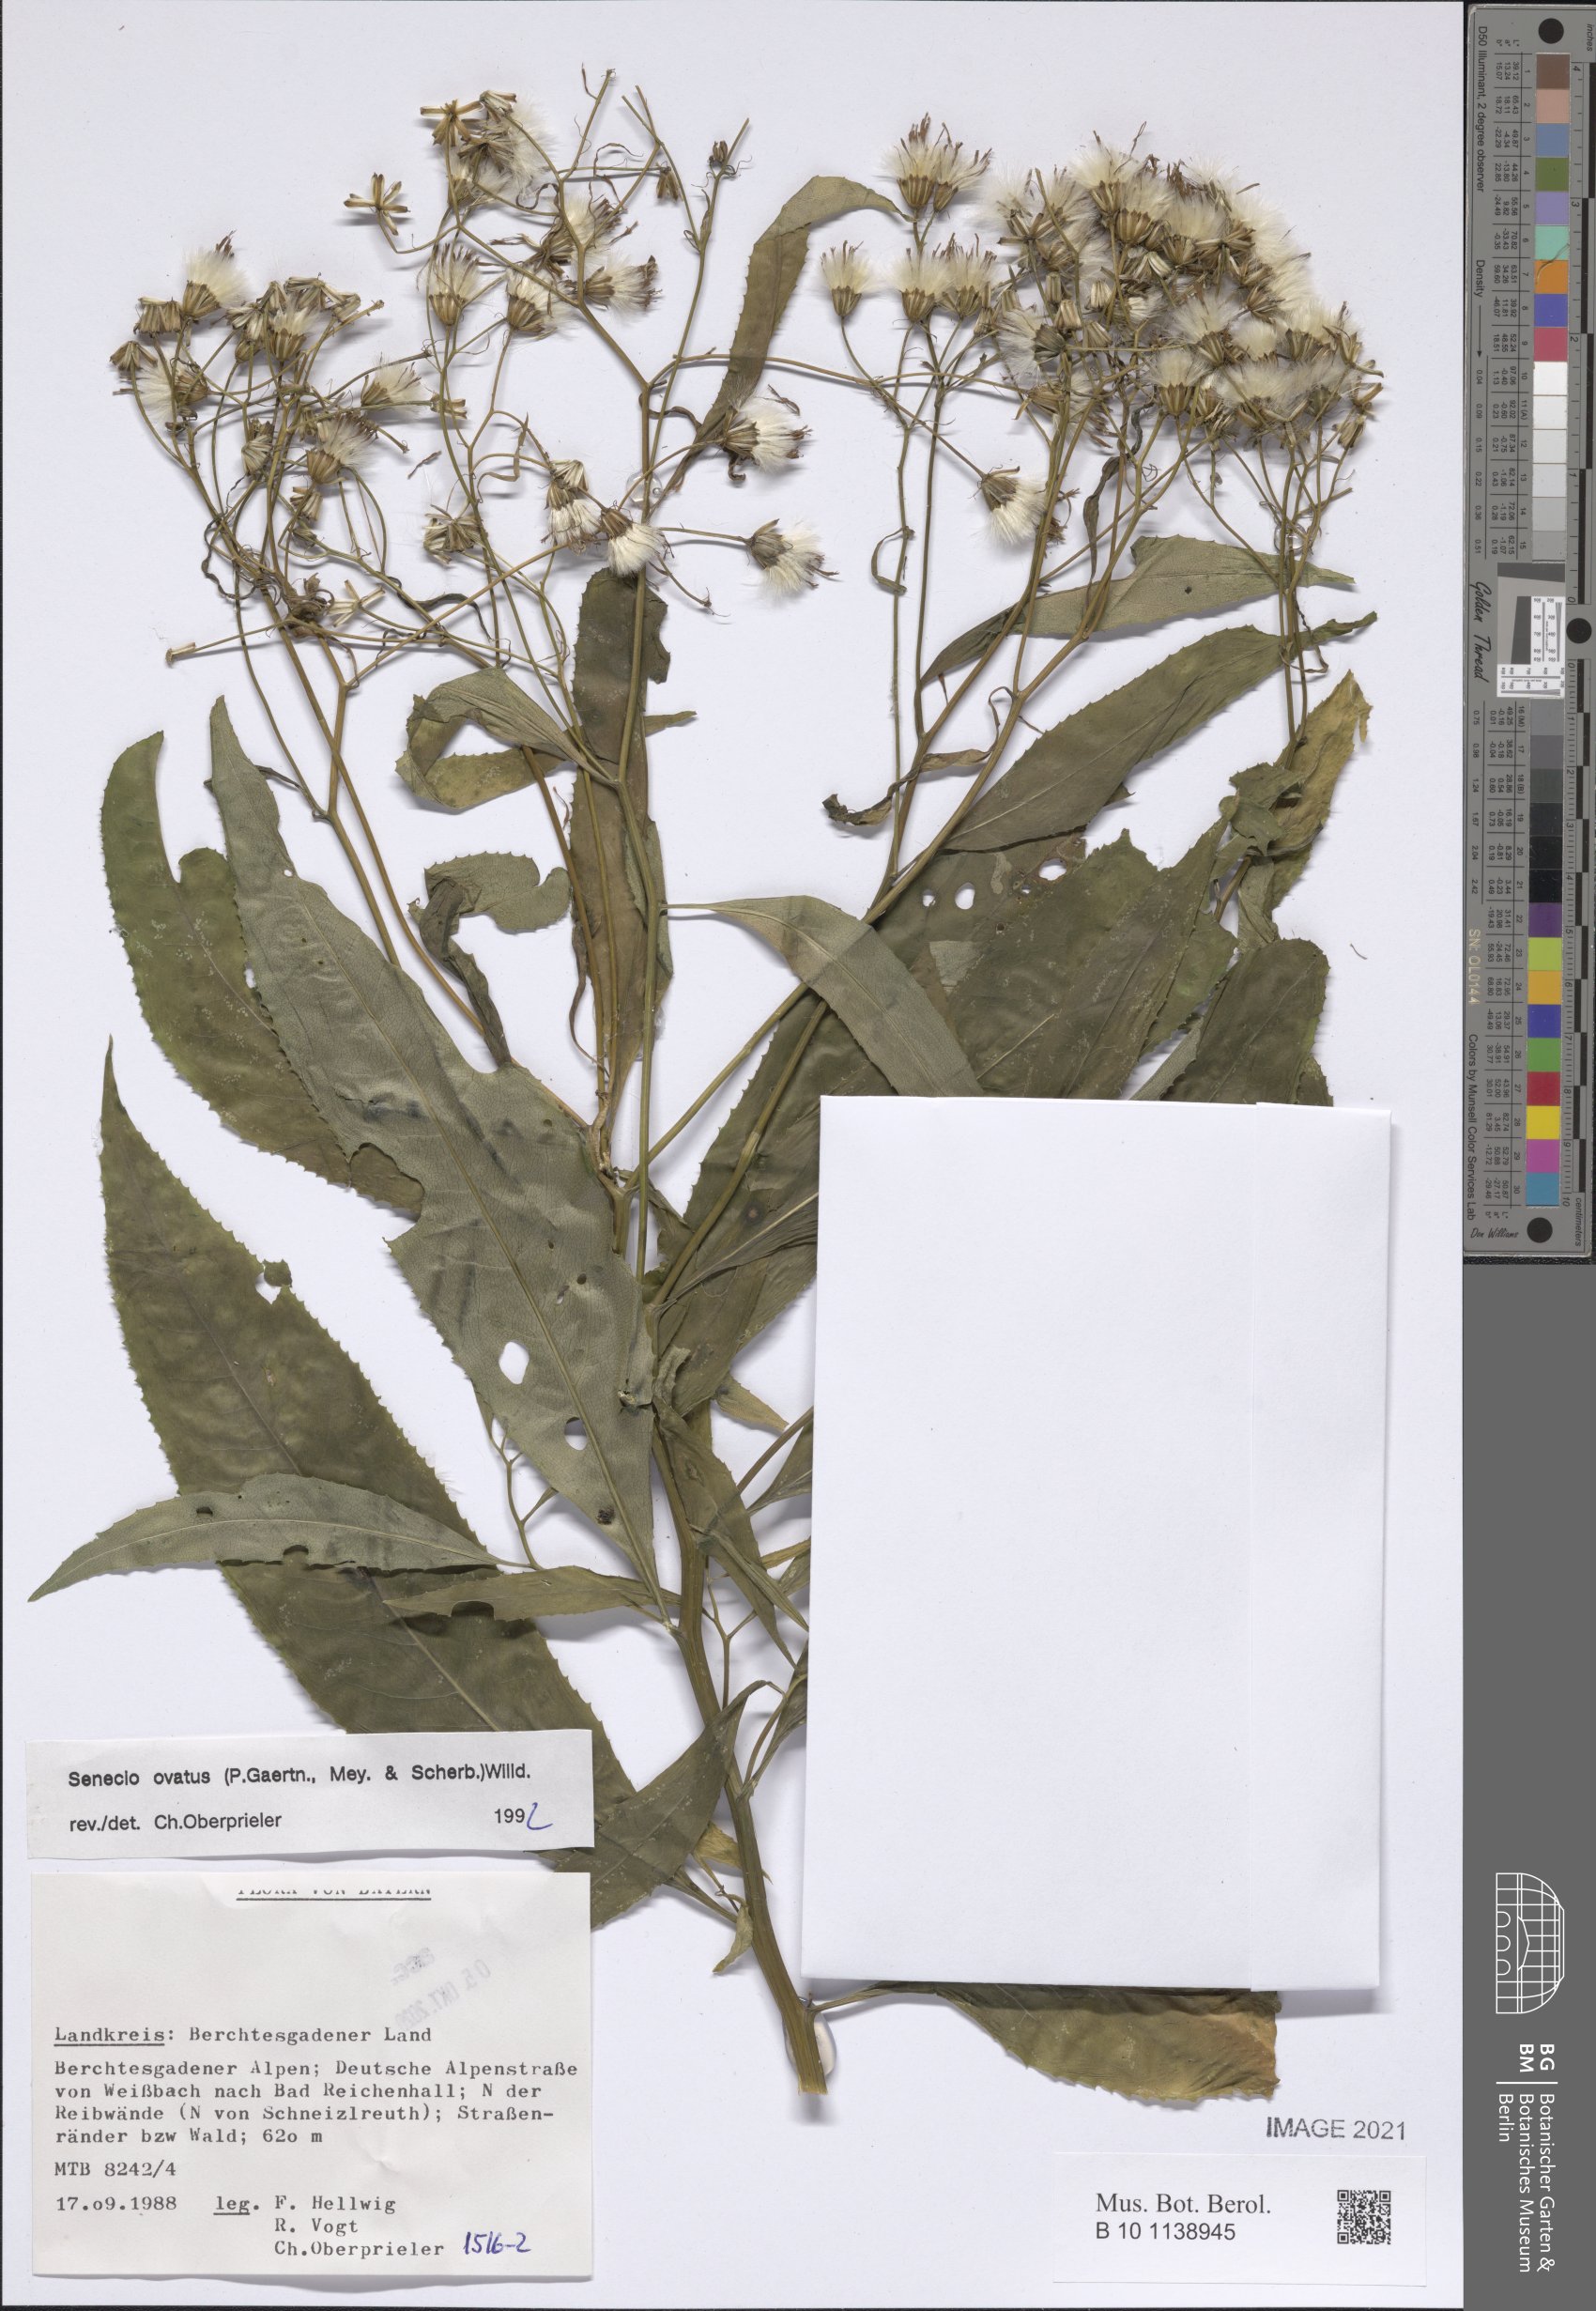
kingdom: Plantae
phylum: Tracheophyta
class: Magnoliopsida
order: Asterales
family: Asteraceae
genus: Senecio
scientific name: Senecio ovatus
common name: Wood ragwort
